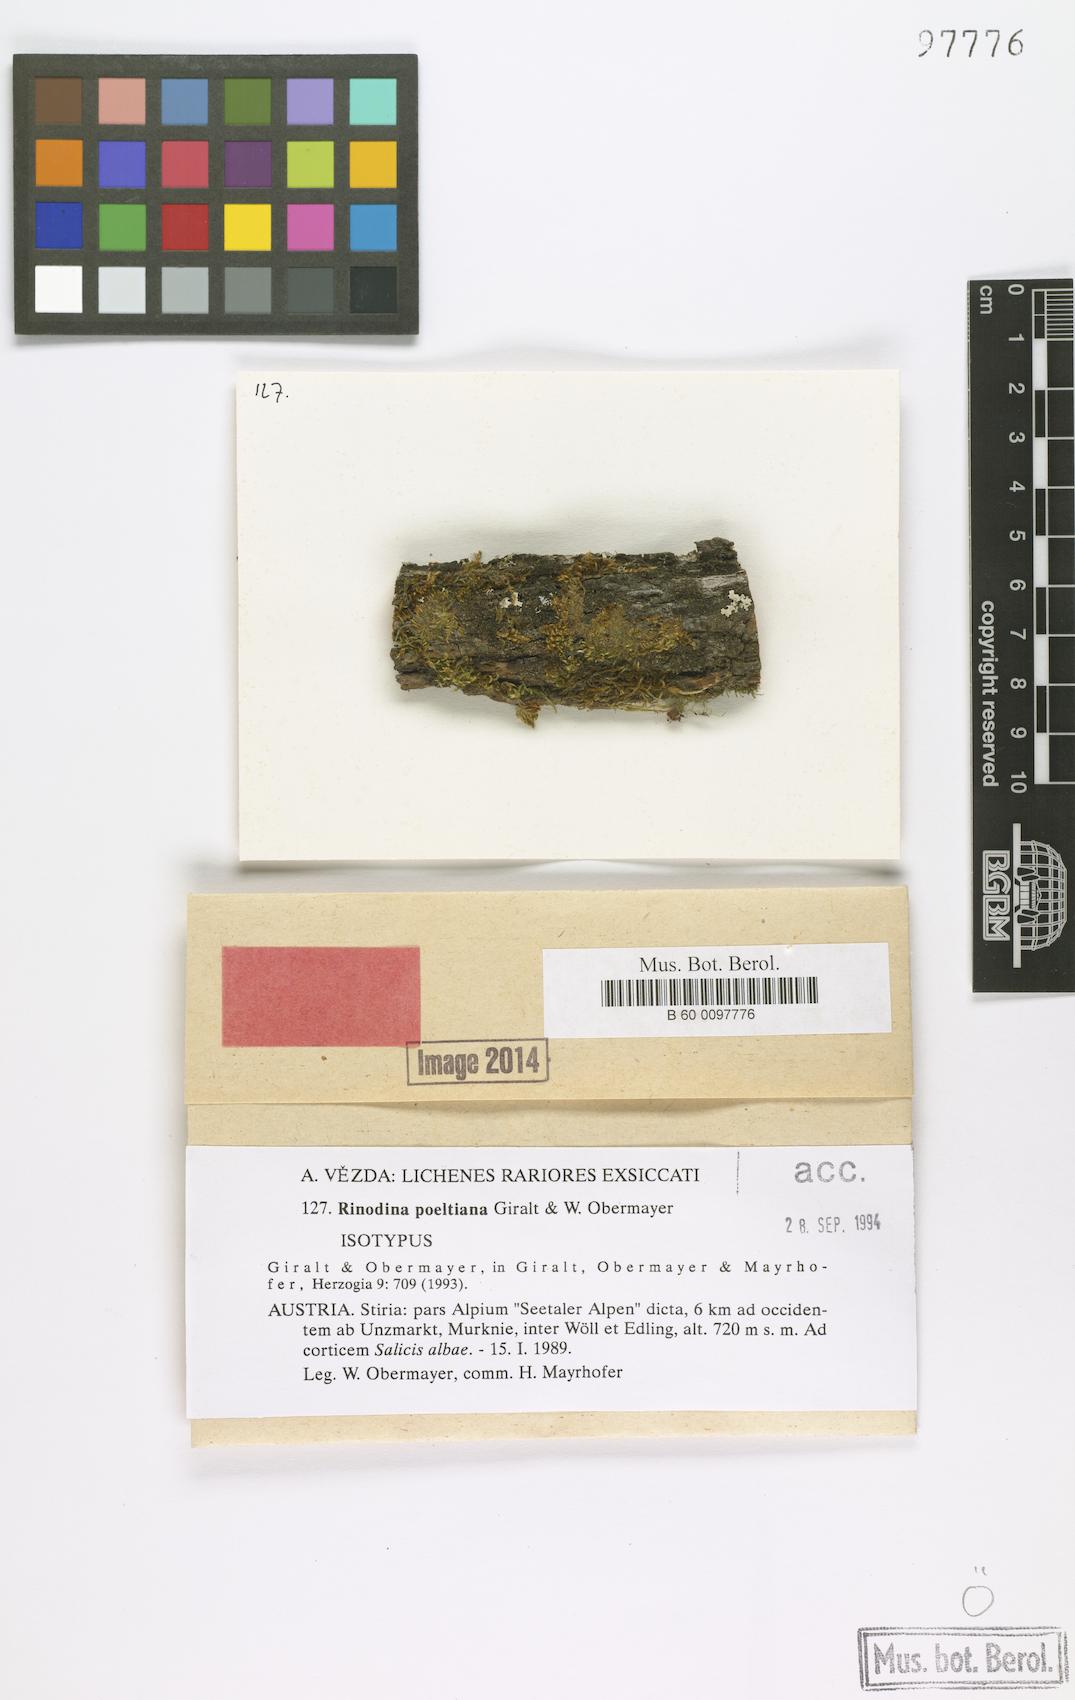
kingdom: Fungi
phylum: Ascomycota
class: Lecanoromycetes
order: Caliciales
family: Physciaceae
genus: Rinodina
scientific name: Rinodina poeltiana
